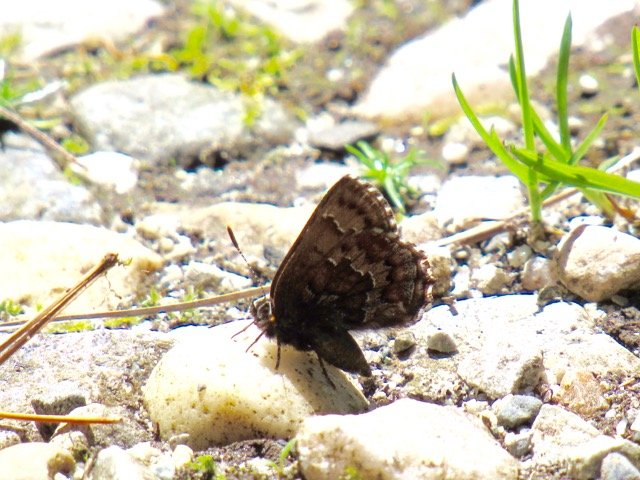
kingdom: Animalia
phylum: Arthropoda
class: Insecta
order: Lepidoptera
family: Lycaenidae
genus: Incisalia
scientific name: Incisalia niphon
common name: Eastern Pine Elfin
